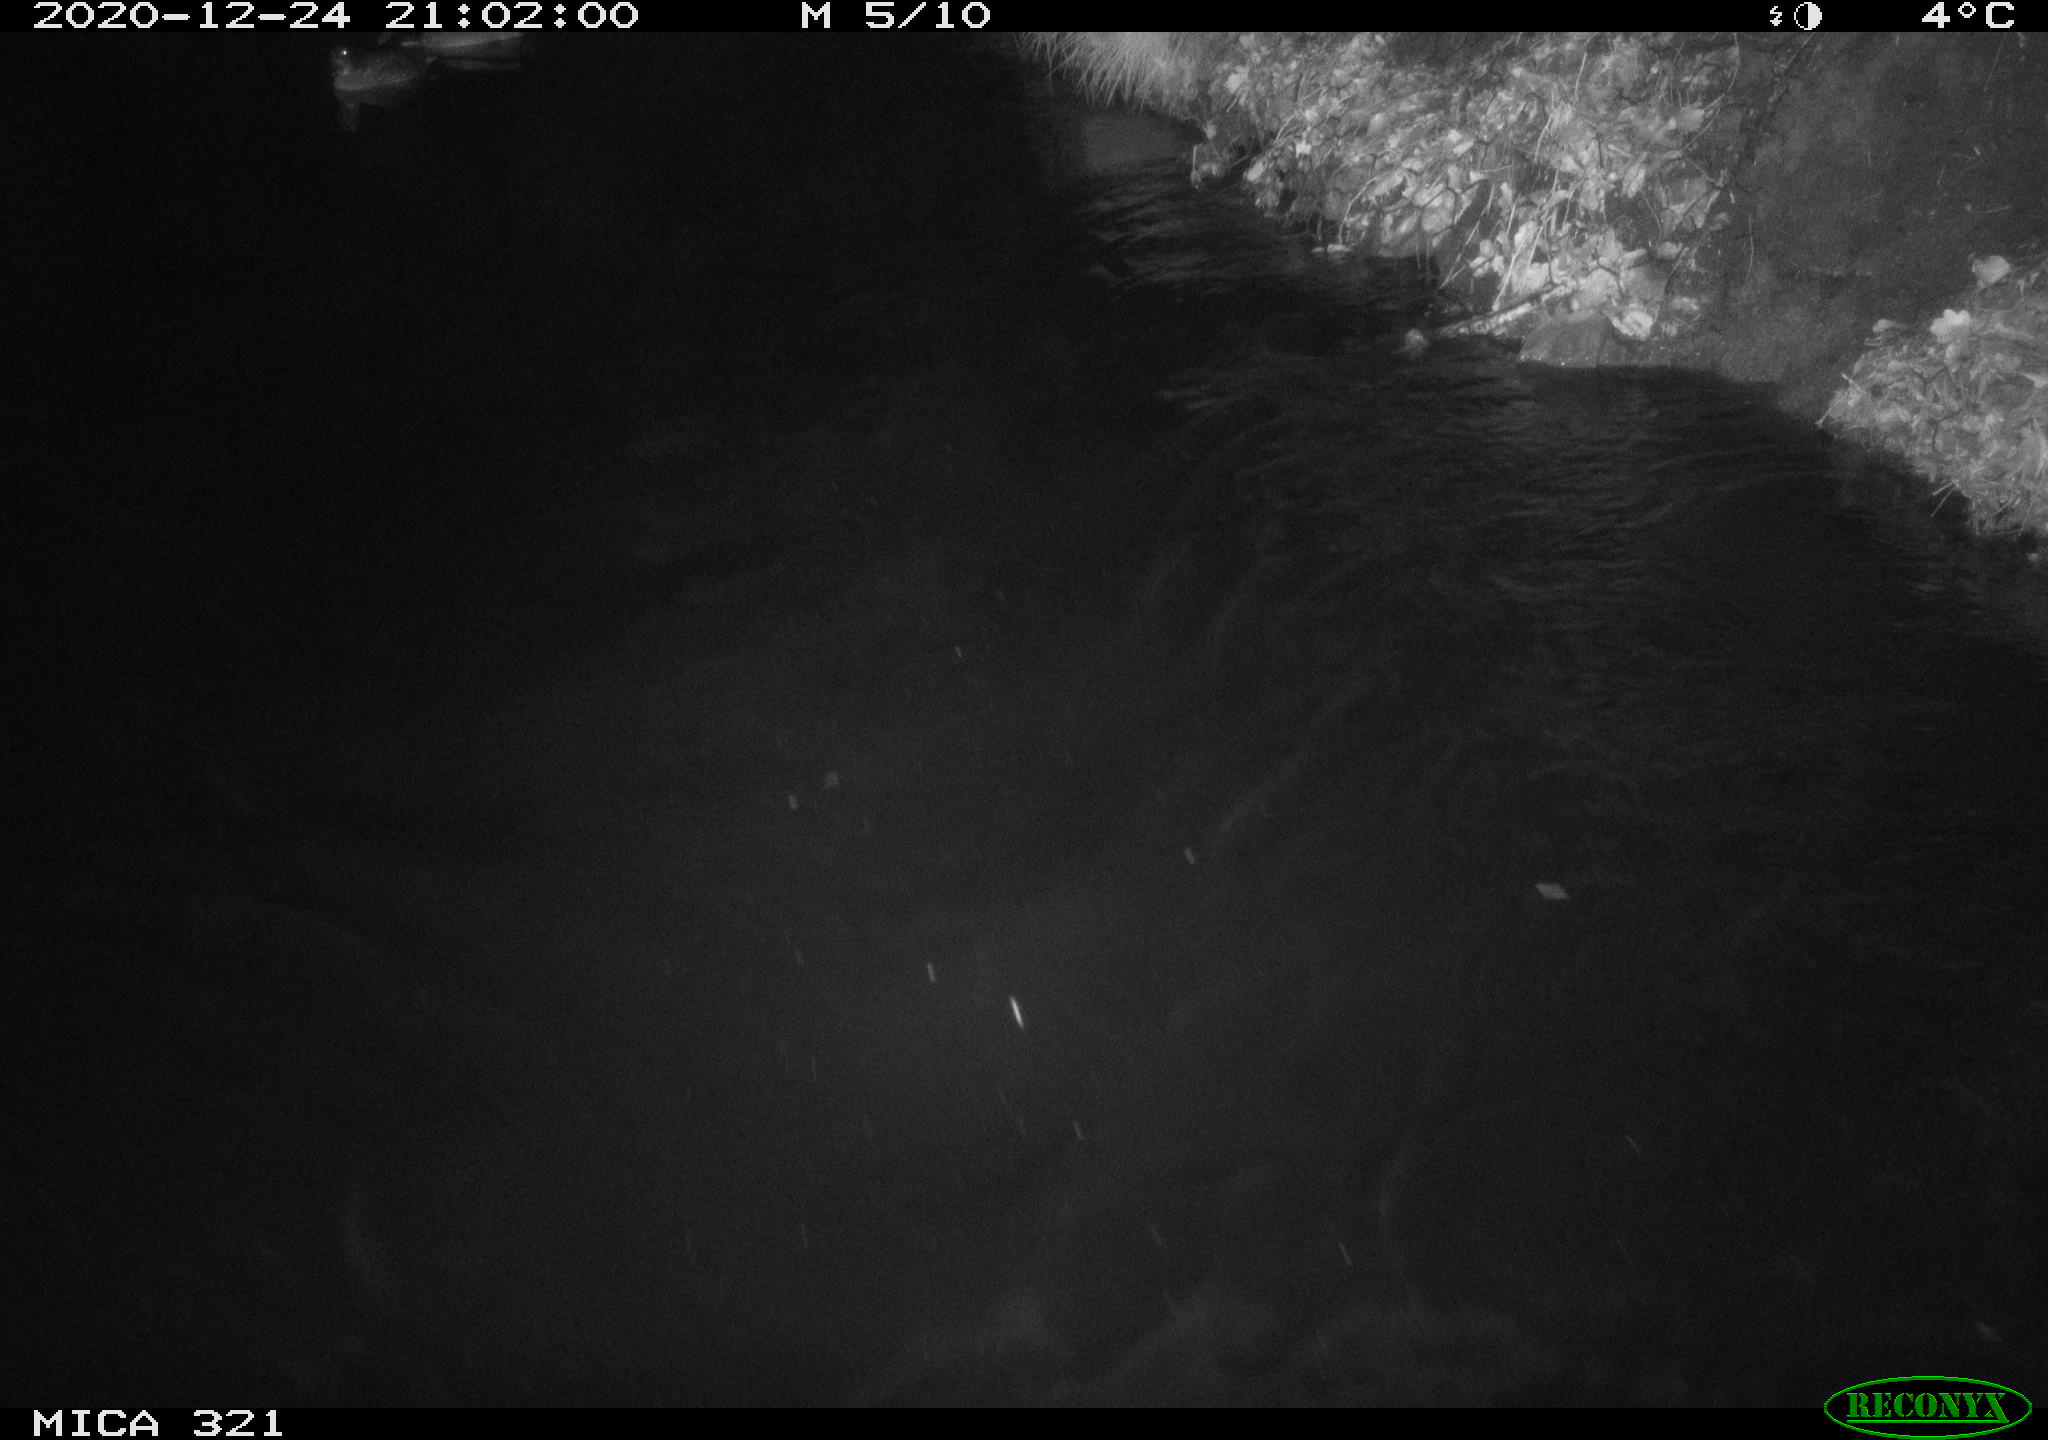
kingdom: Animalia
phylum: Chordata
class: Aves
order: Anseriformes
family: Anatidae
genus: Anas
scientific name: Anas platyrhynchos
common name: Mallard
